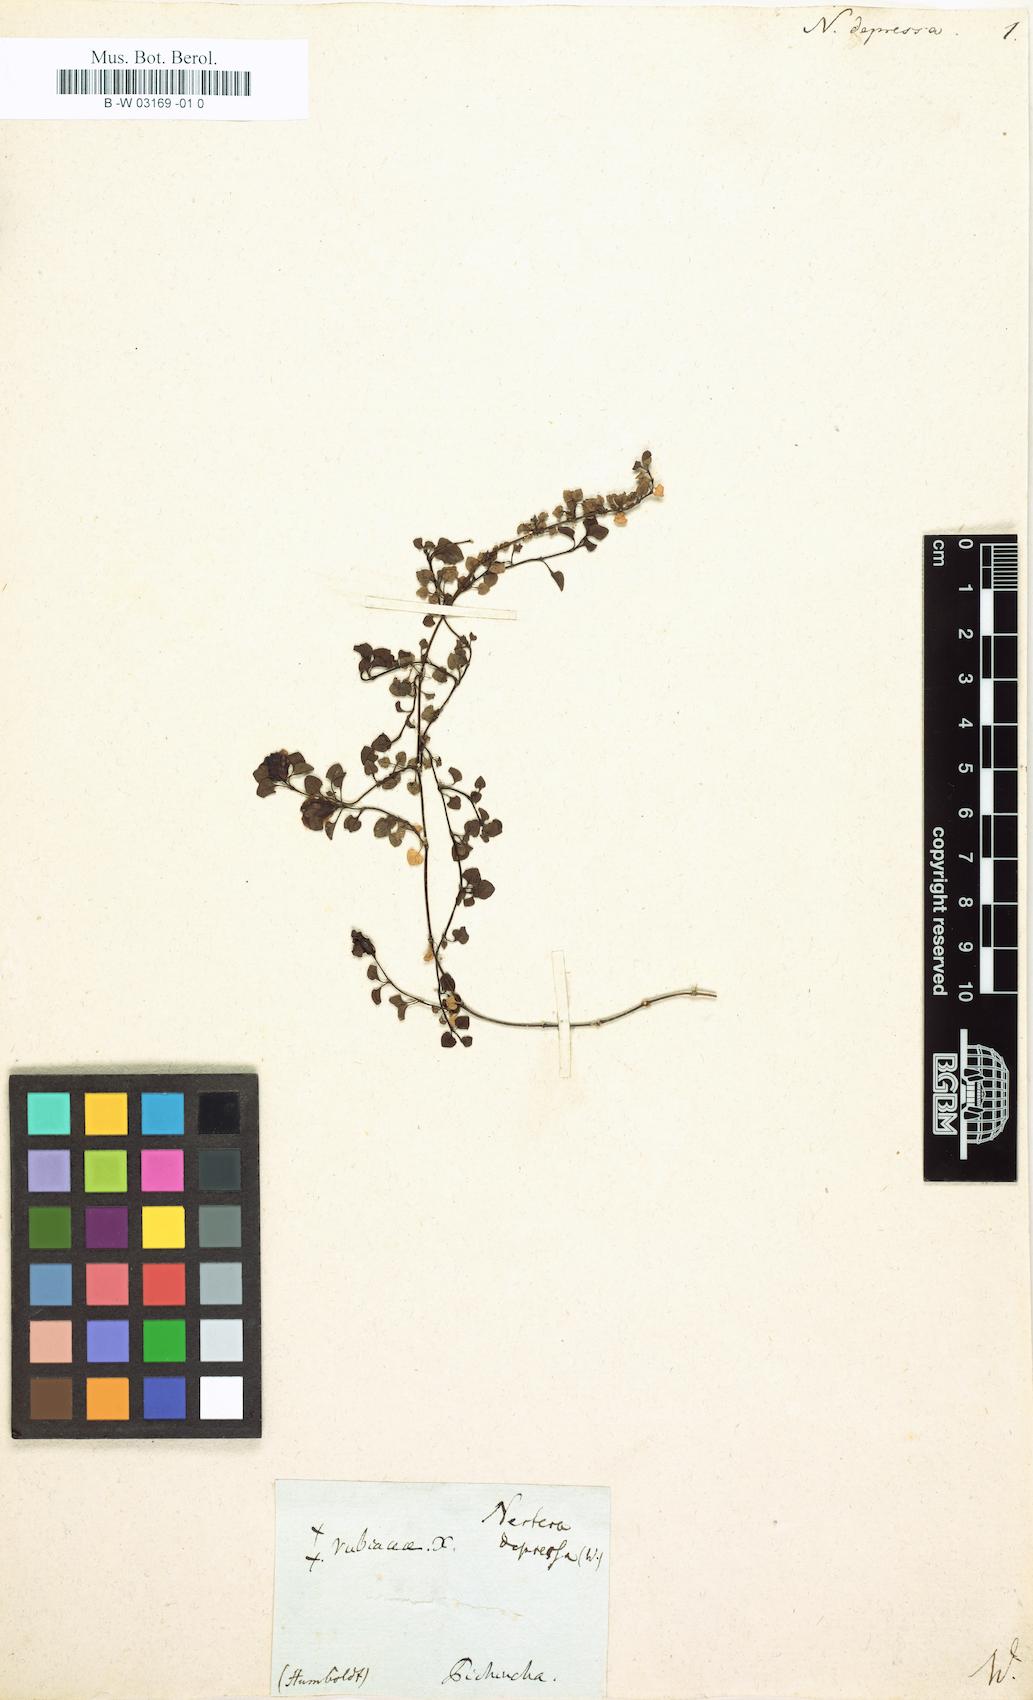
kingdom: Plantae
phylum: Tracheophyta
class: Magnoliopsida
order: Gentianales
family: Rubiaceae
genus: Nertera
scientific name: Nertera granadensis
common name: Beadplant
